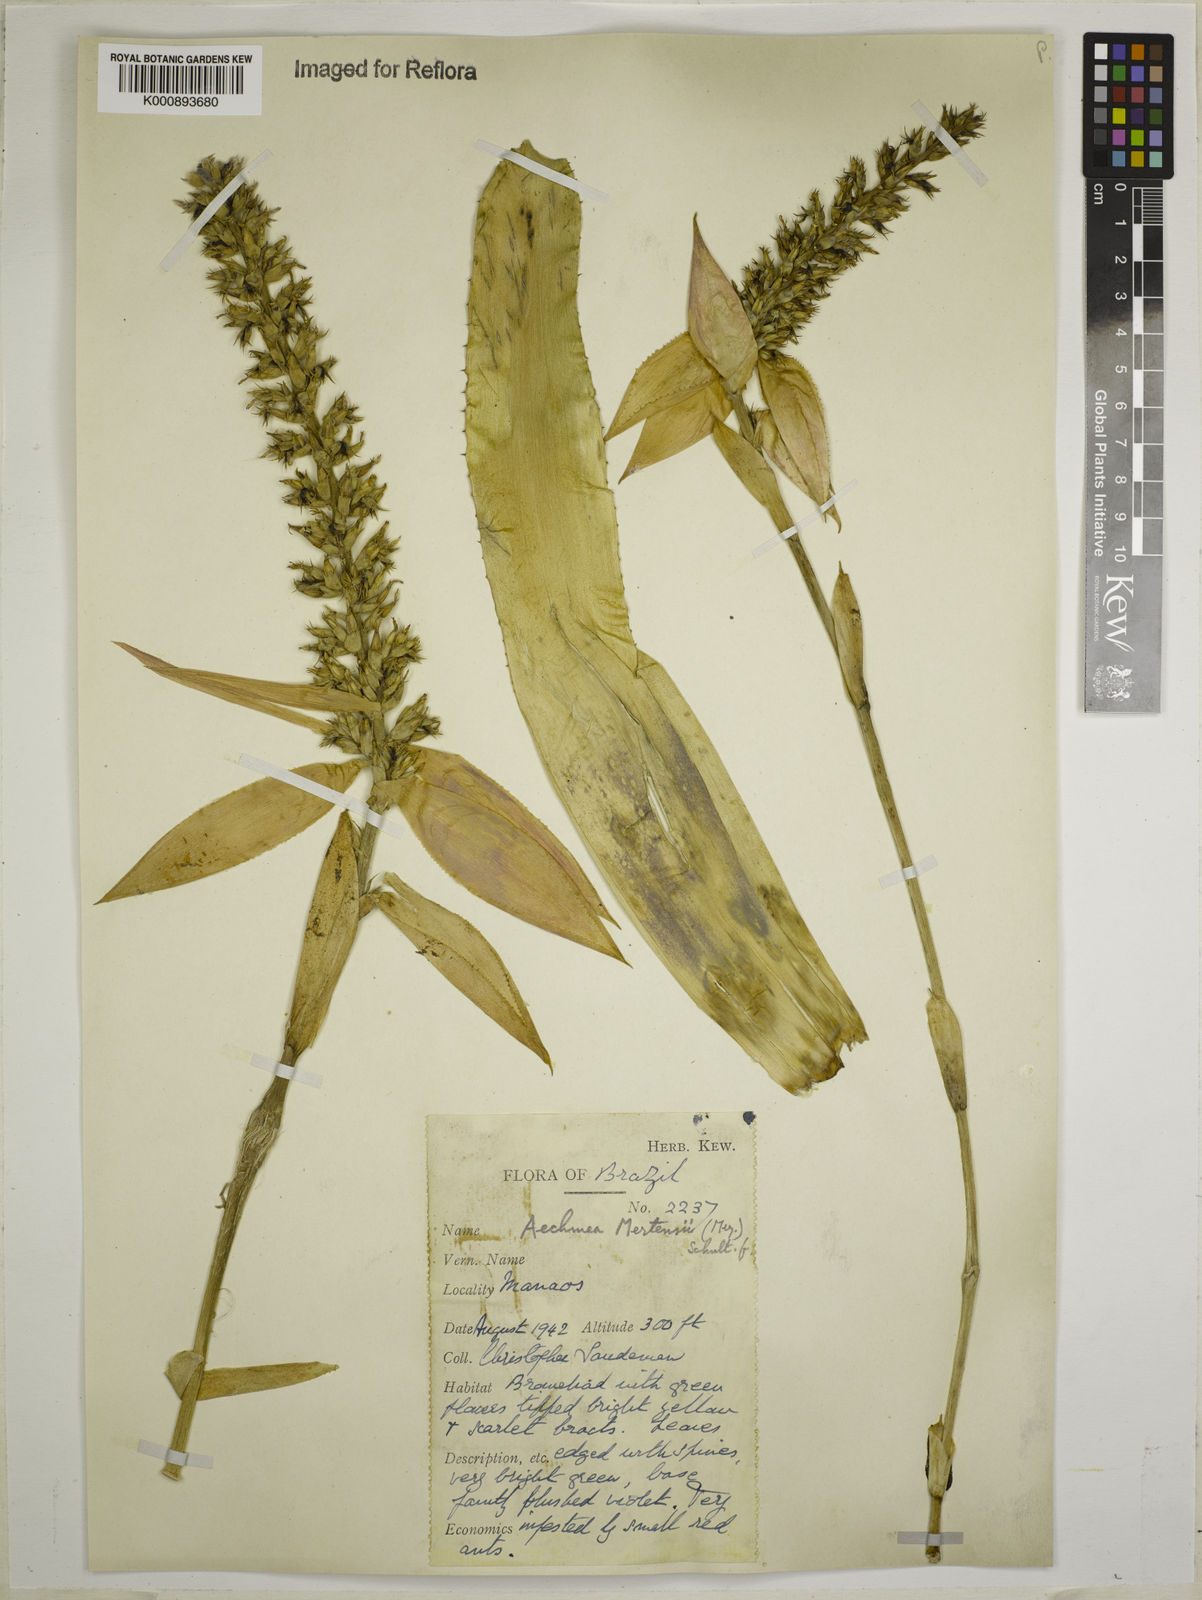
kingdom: Plantae
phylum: Tracheophyta
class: Liliopsida
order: Poales
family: Bromeliaceae
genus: Aechmea
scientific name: Aechmea mertensii
